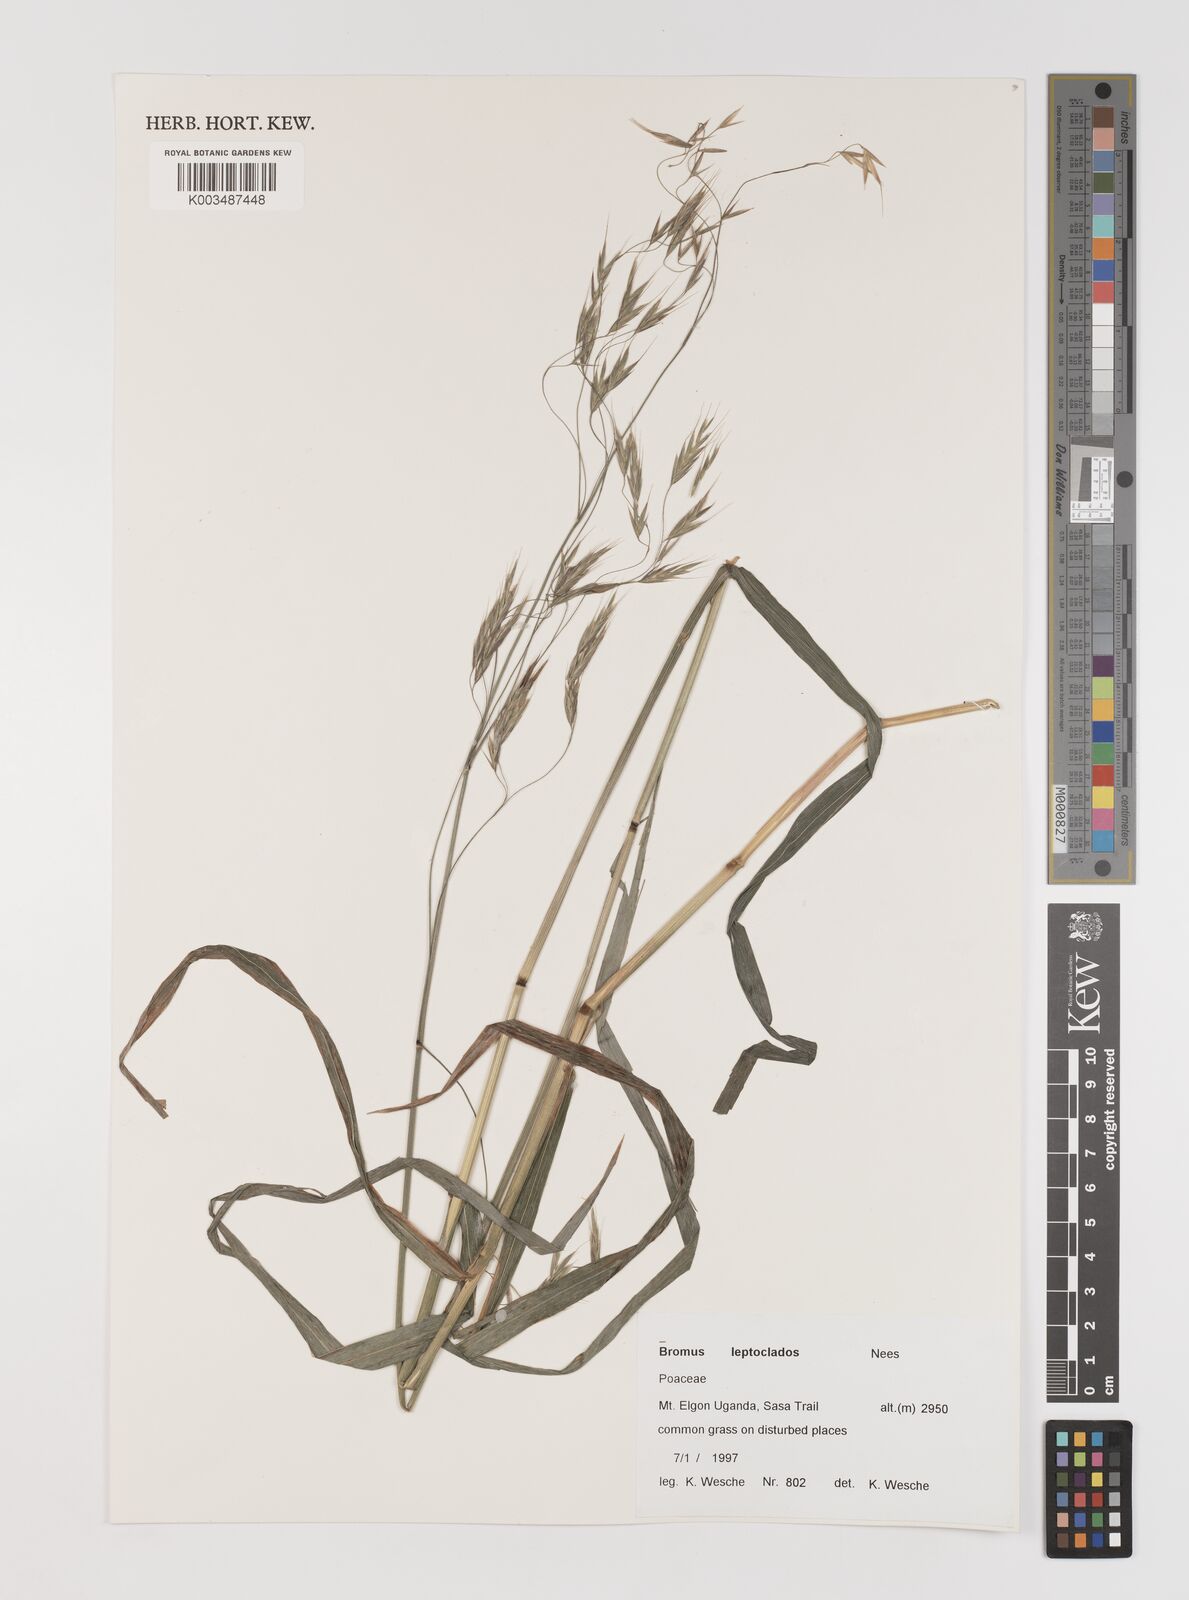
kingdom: Plantae
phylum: Tracheophyta
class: Liliopsida
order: Poales
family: Poaceae
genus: Bromus
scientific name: Bromus leptoclados
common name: Mountain bromegrass
